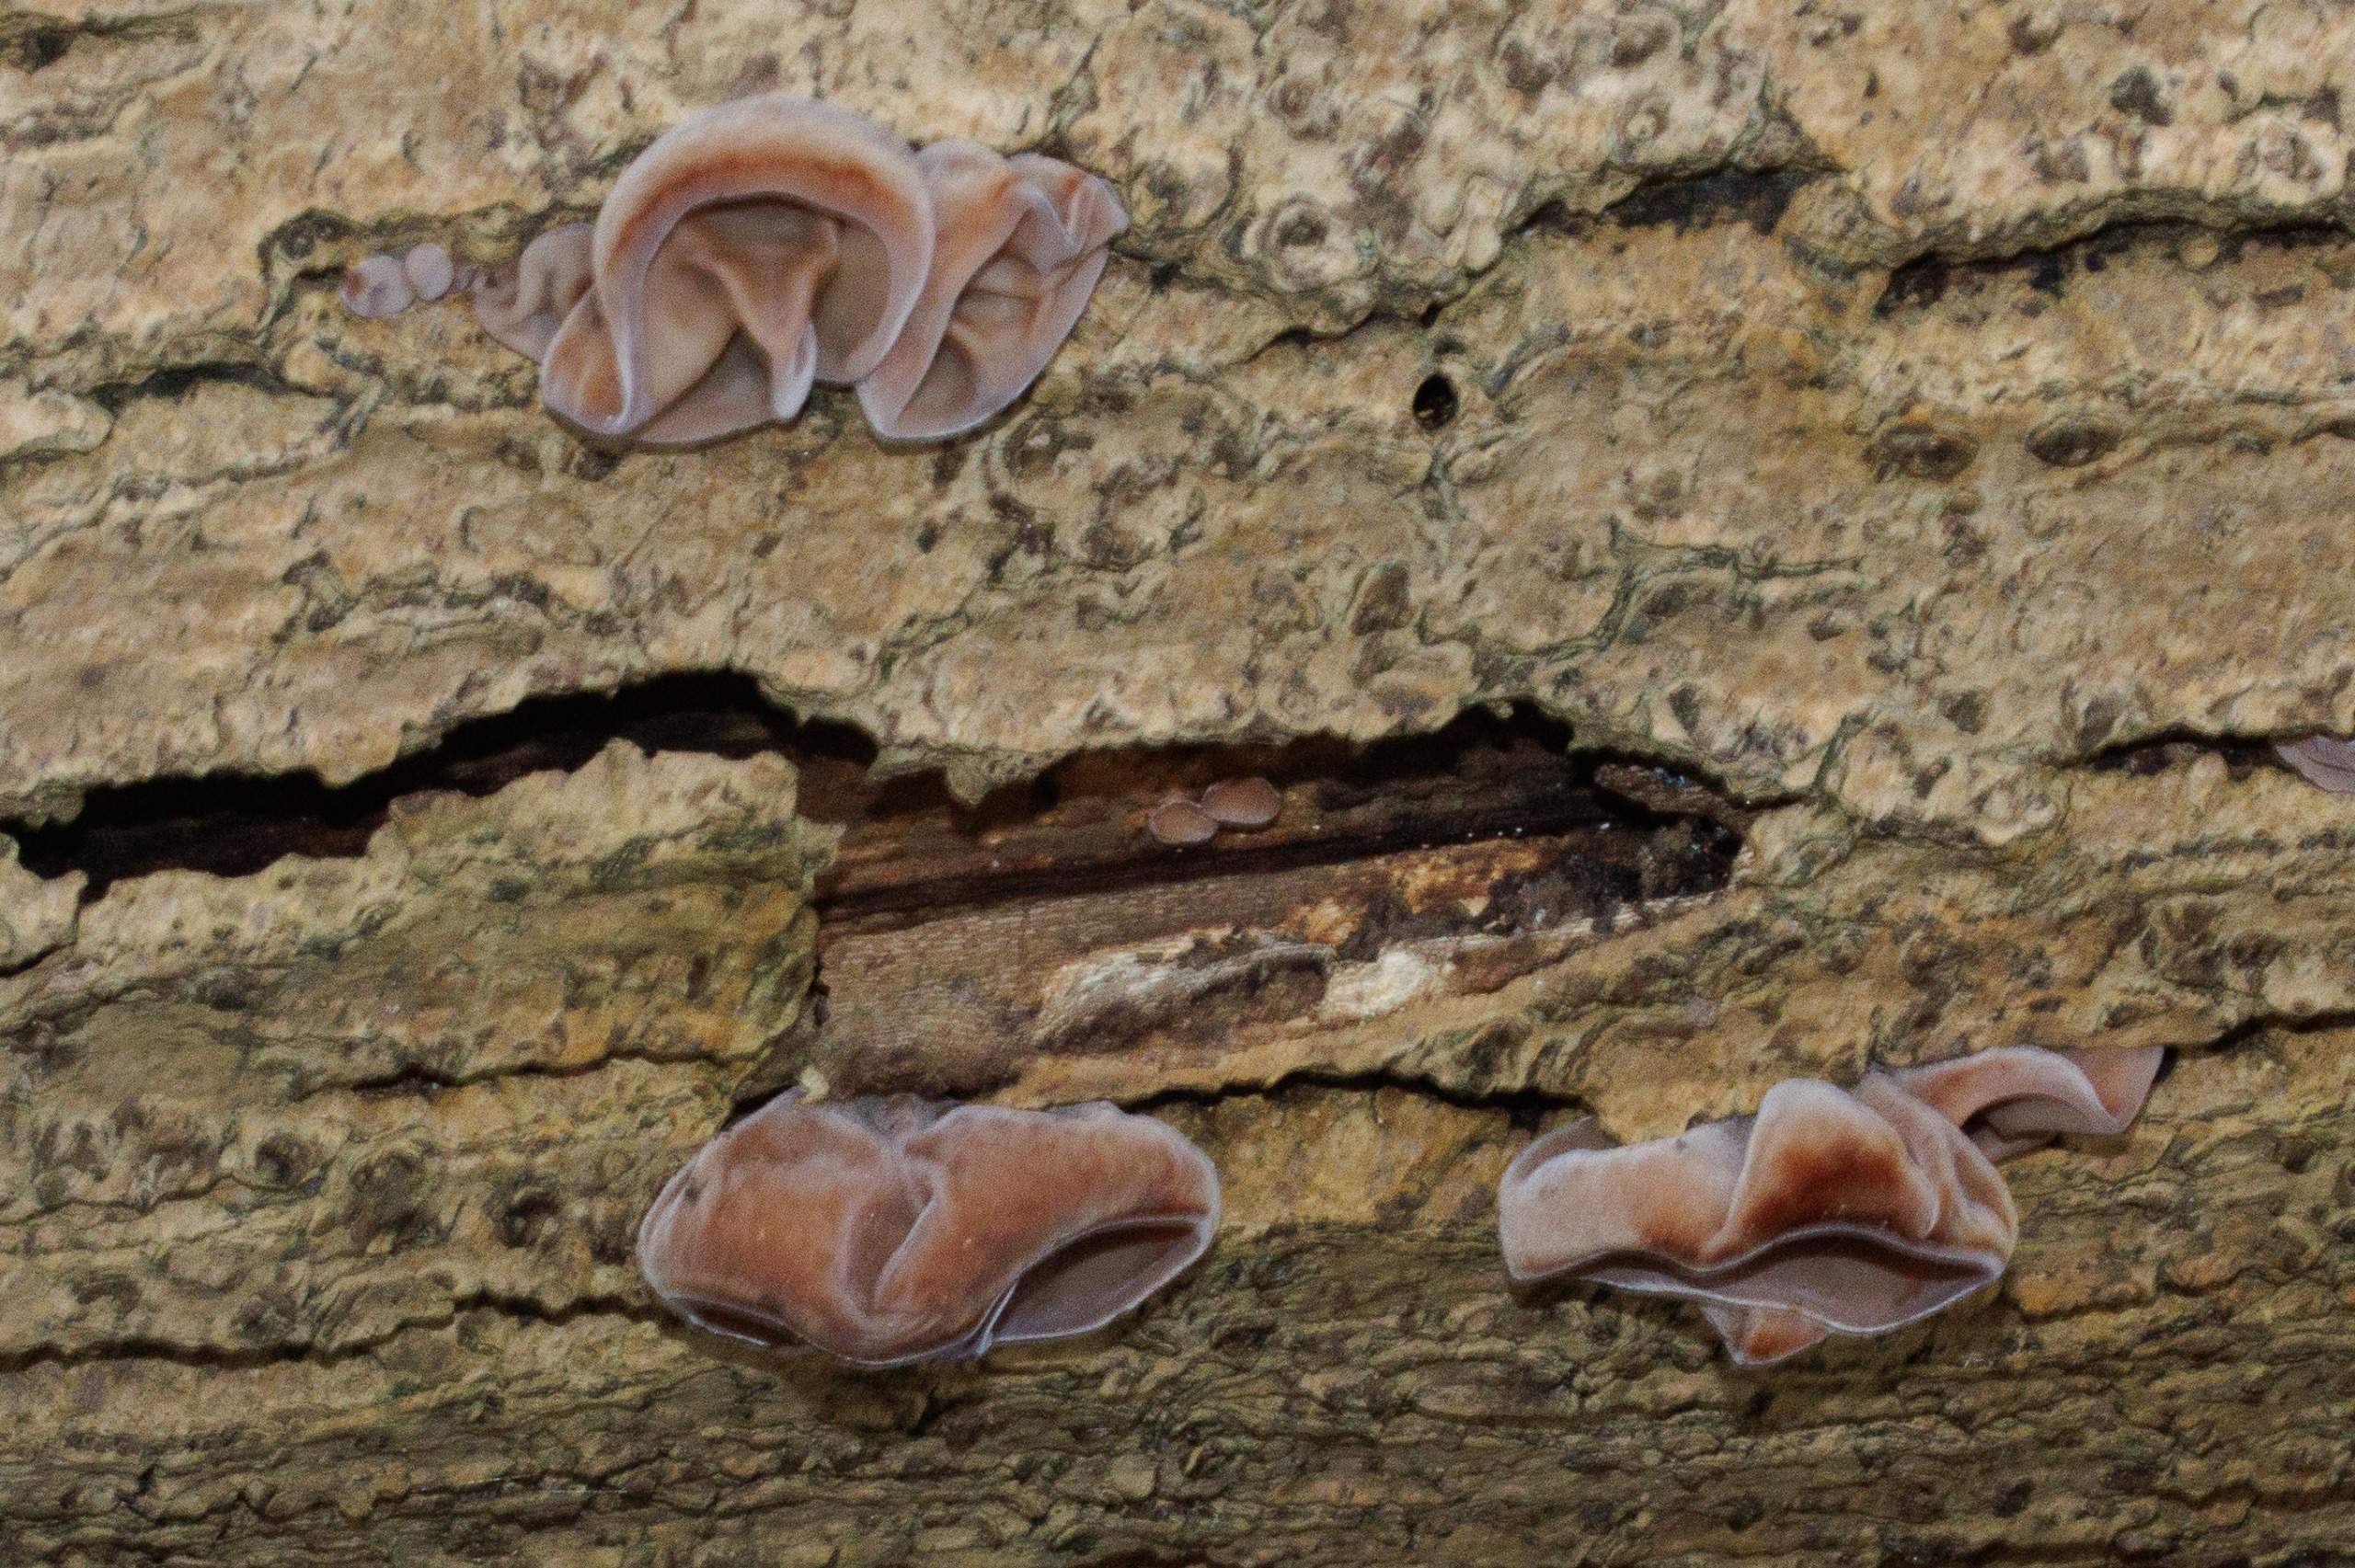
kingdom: Fungi
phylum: Basidiomycota
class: Agaricomycetes
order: Auriculariales
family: Auriculariaceae
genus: Auricularia
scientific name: Auricularia auricula-judae
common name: Almindelig judasøre
